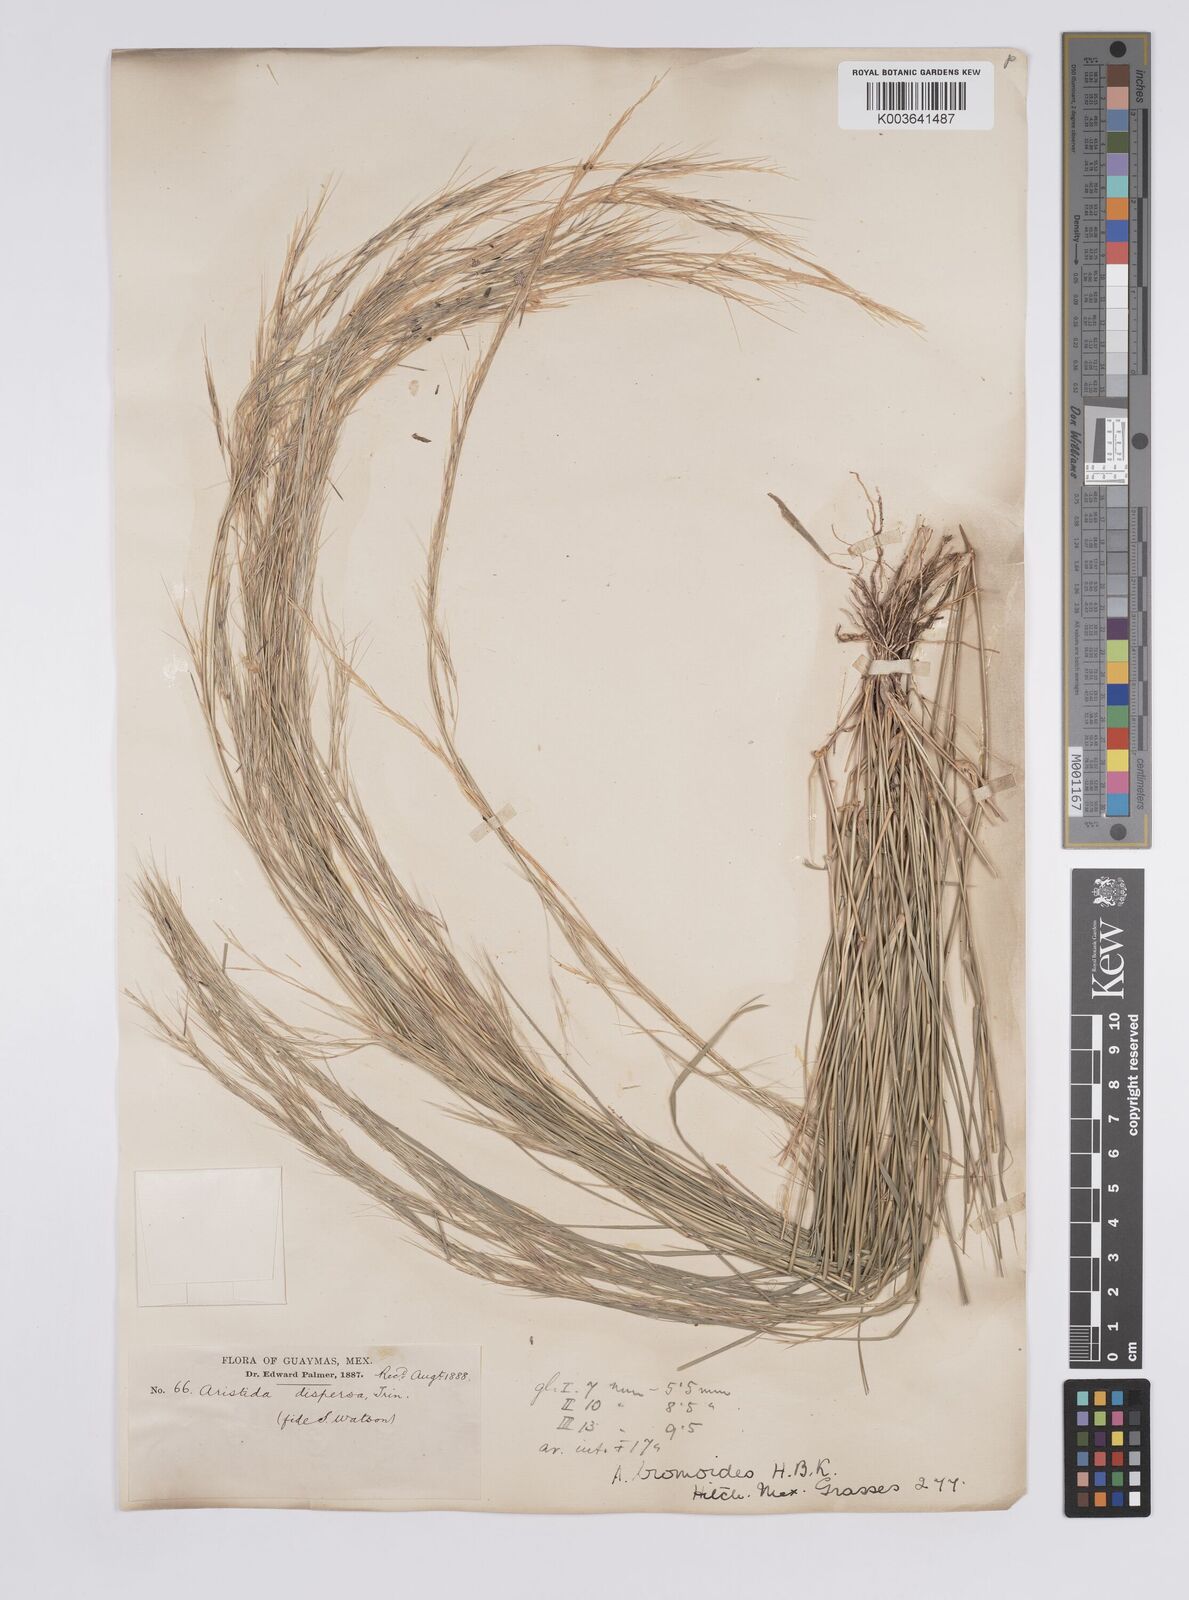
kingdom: Plantae
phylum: Tracheophyta
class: Liliopsida
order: Poales
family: Poaceae
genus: Aristida
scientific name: Aristida adscensionis
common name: Sixweeks threeawn
